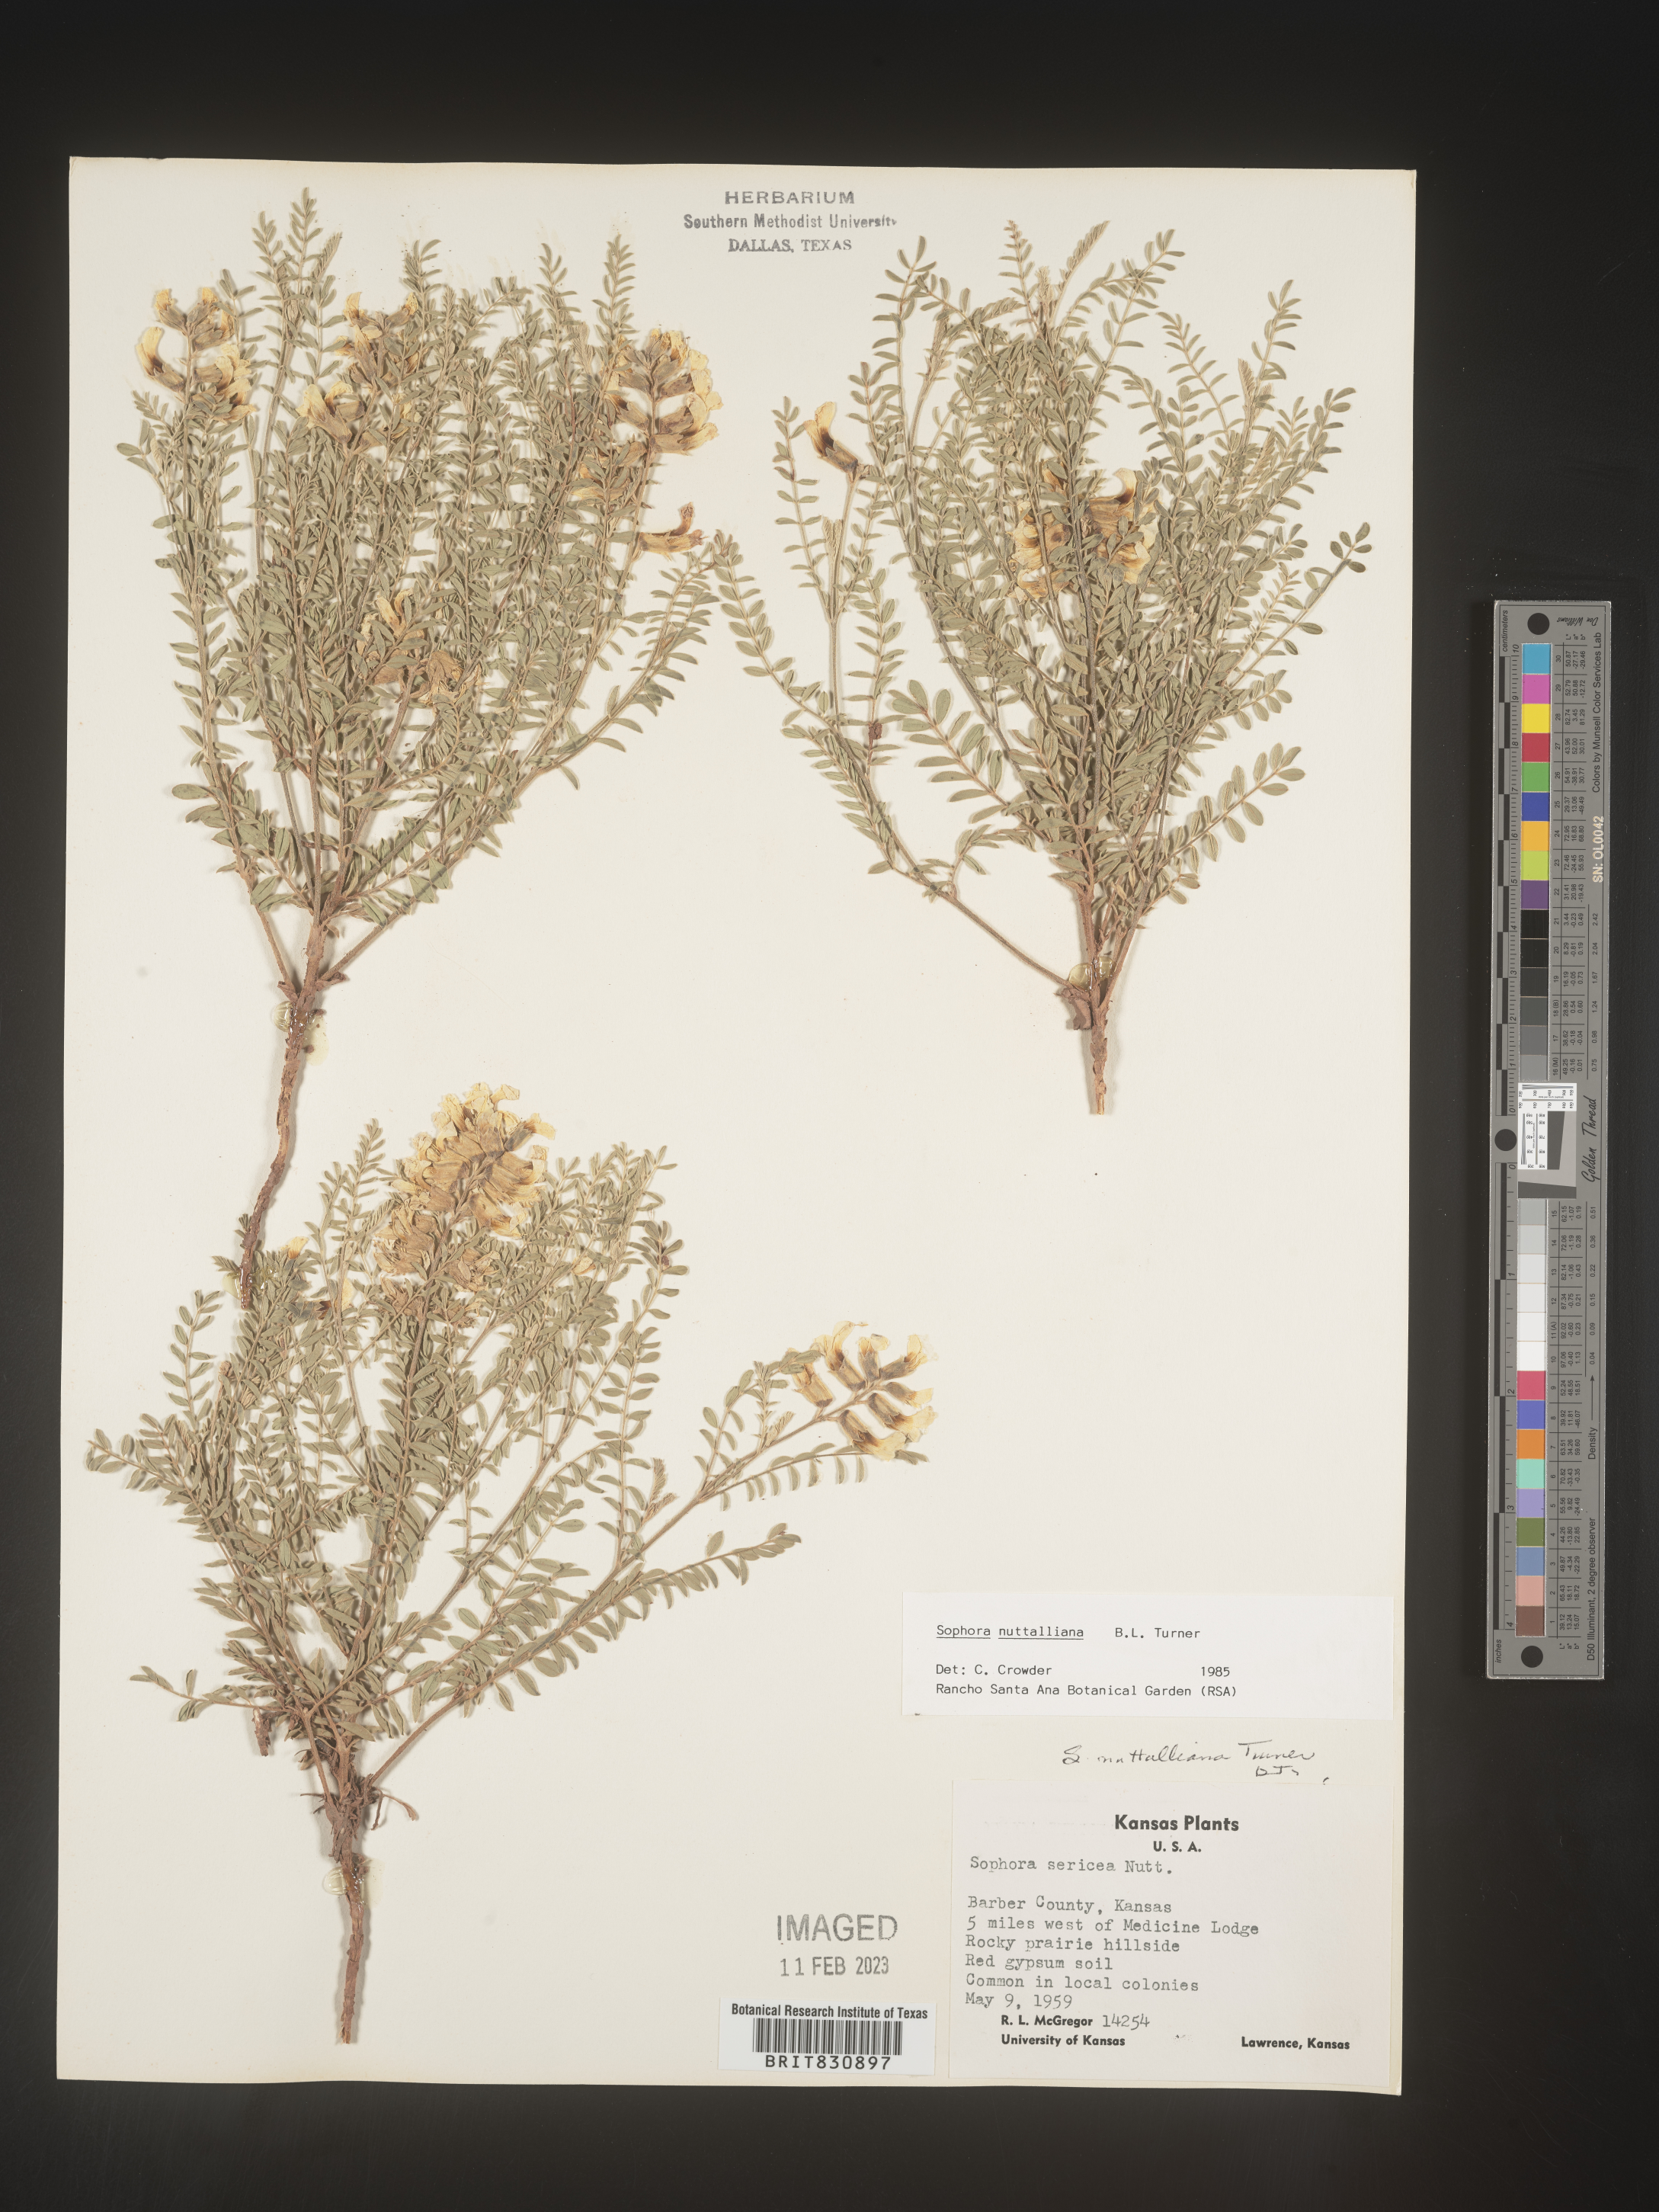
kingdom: Plantae
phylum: Tracheophyta
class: Magnoliopsida
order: Fabales
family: Fabaceae
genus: Sophora
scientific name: Sophora nuttalliana
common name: Silky sophora
